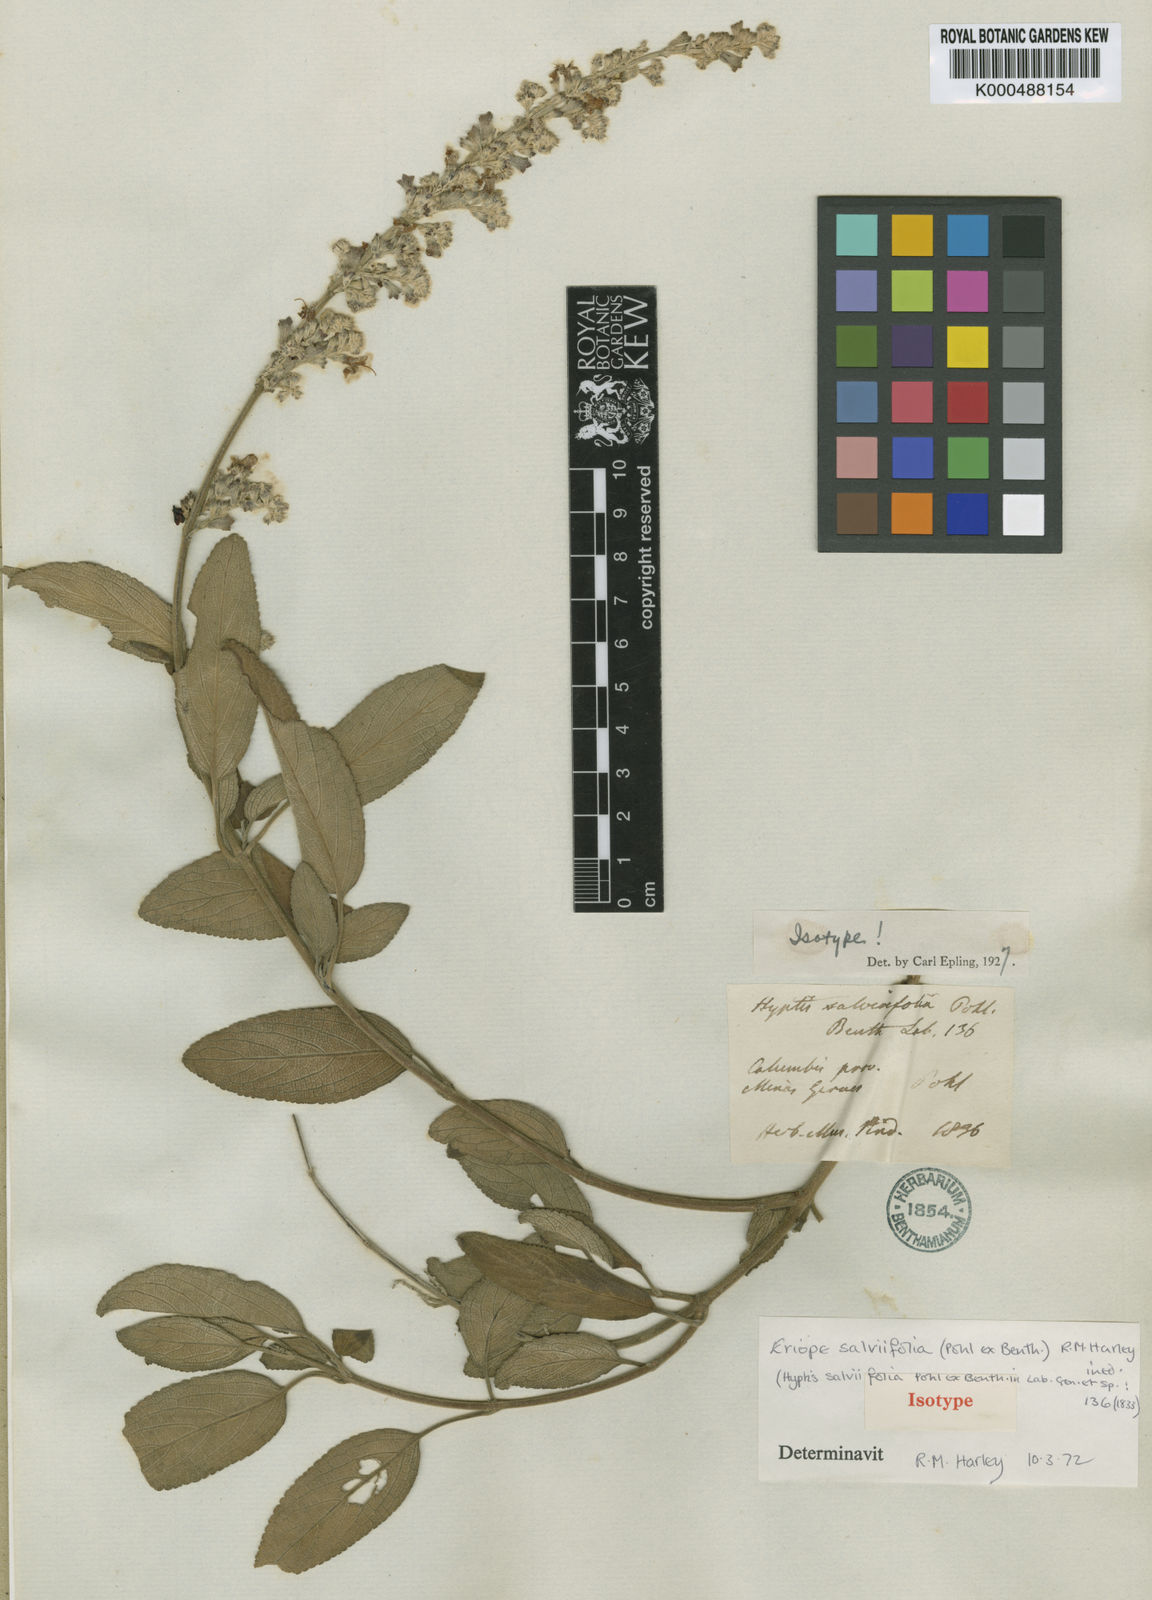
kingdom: Plantae
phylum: Tracheophyta
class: Magnoliopsida
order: Lamiales
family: Lamiaceae
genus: Eriope
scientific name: Eriope salviifolia
